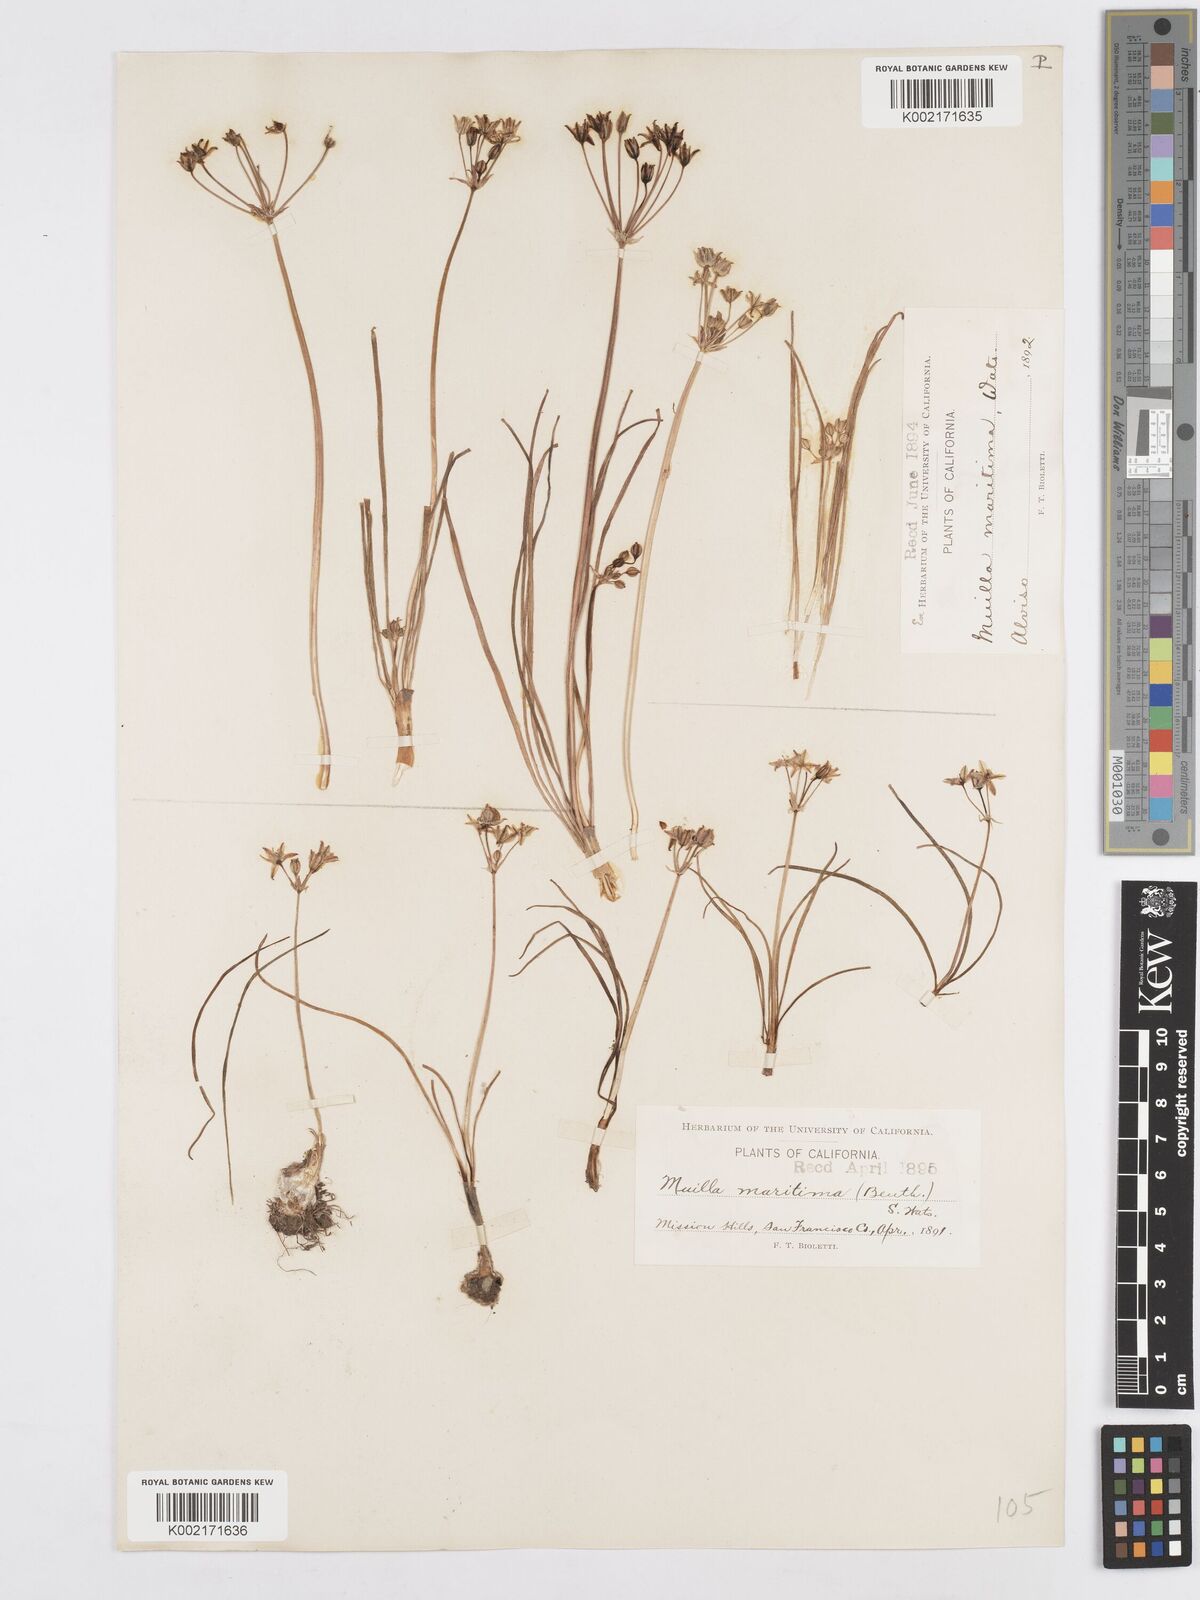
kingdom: Plantae
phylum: Tracheophyta
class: Liliopsida
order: Asparagales
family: Asparagaceae
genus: Muilla
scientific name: Muilla maritima
